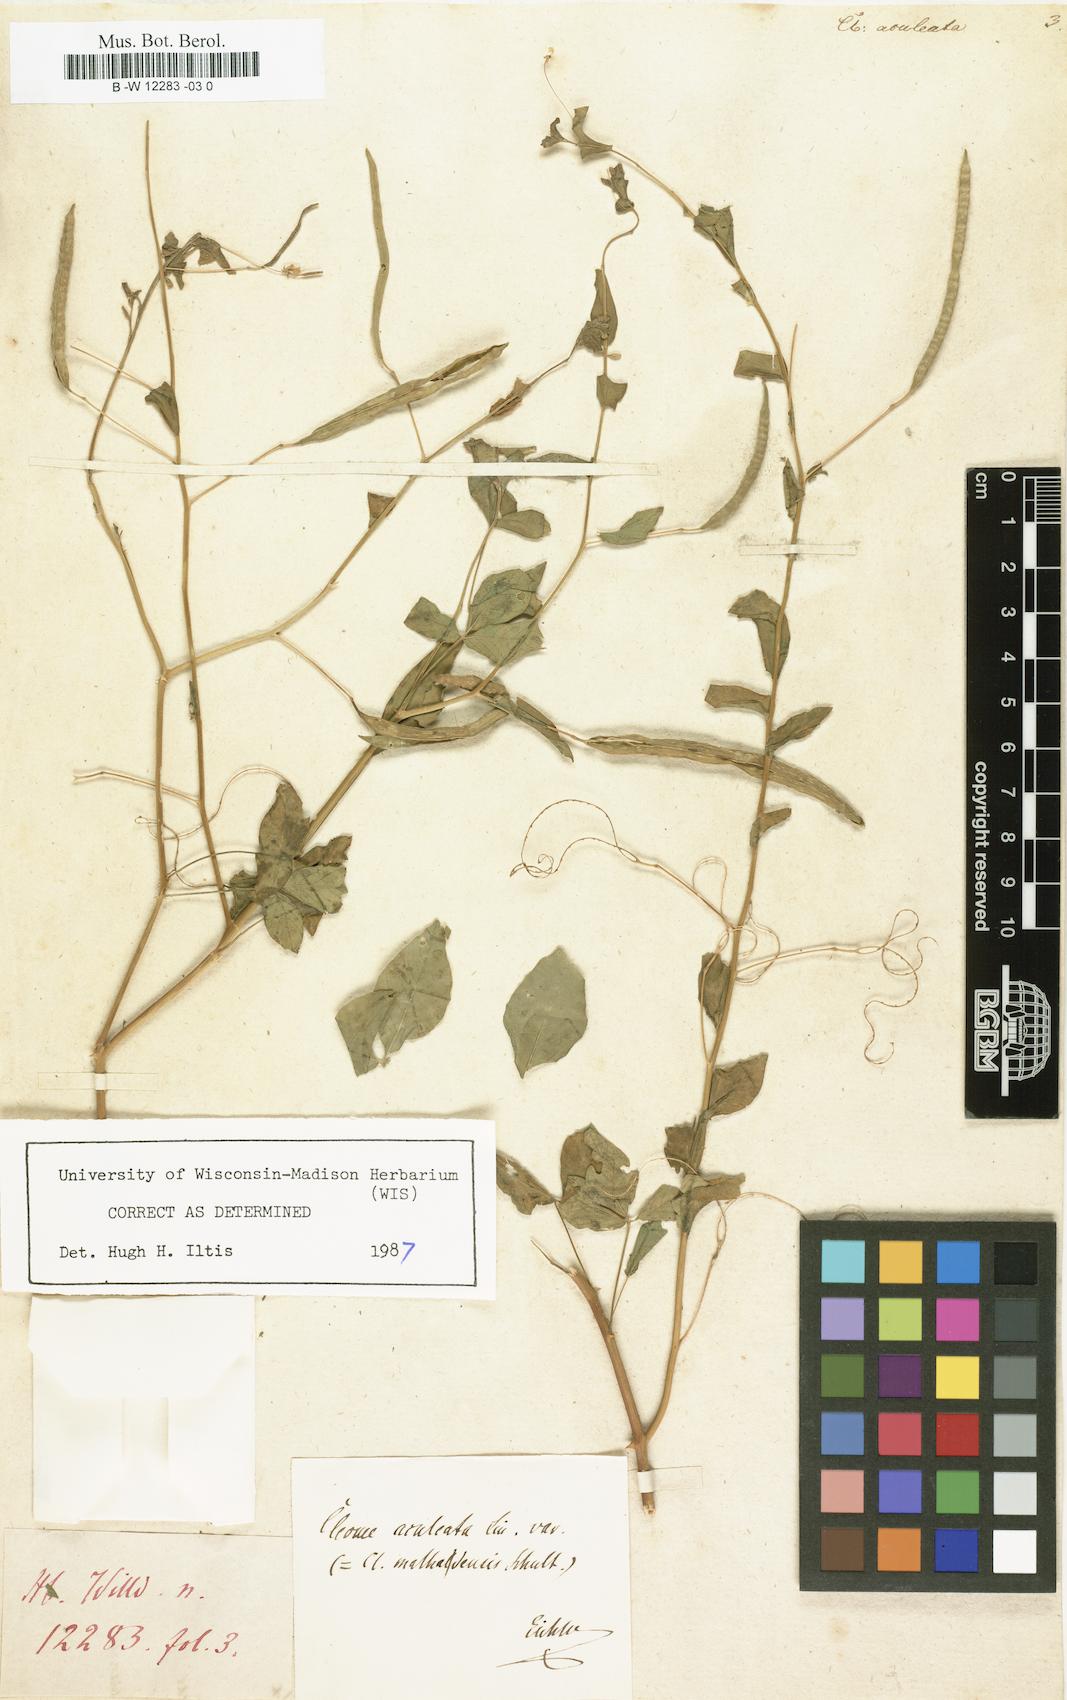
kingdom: Plantae
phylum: Tracheophyta
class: Magnoliopsida
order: Brassicales
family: Cleomaceae
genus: Tarenaya
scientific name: Tarenaya aculeata
